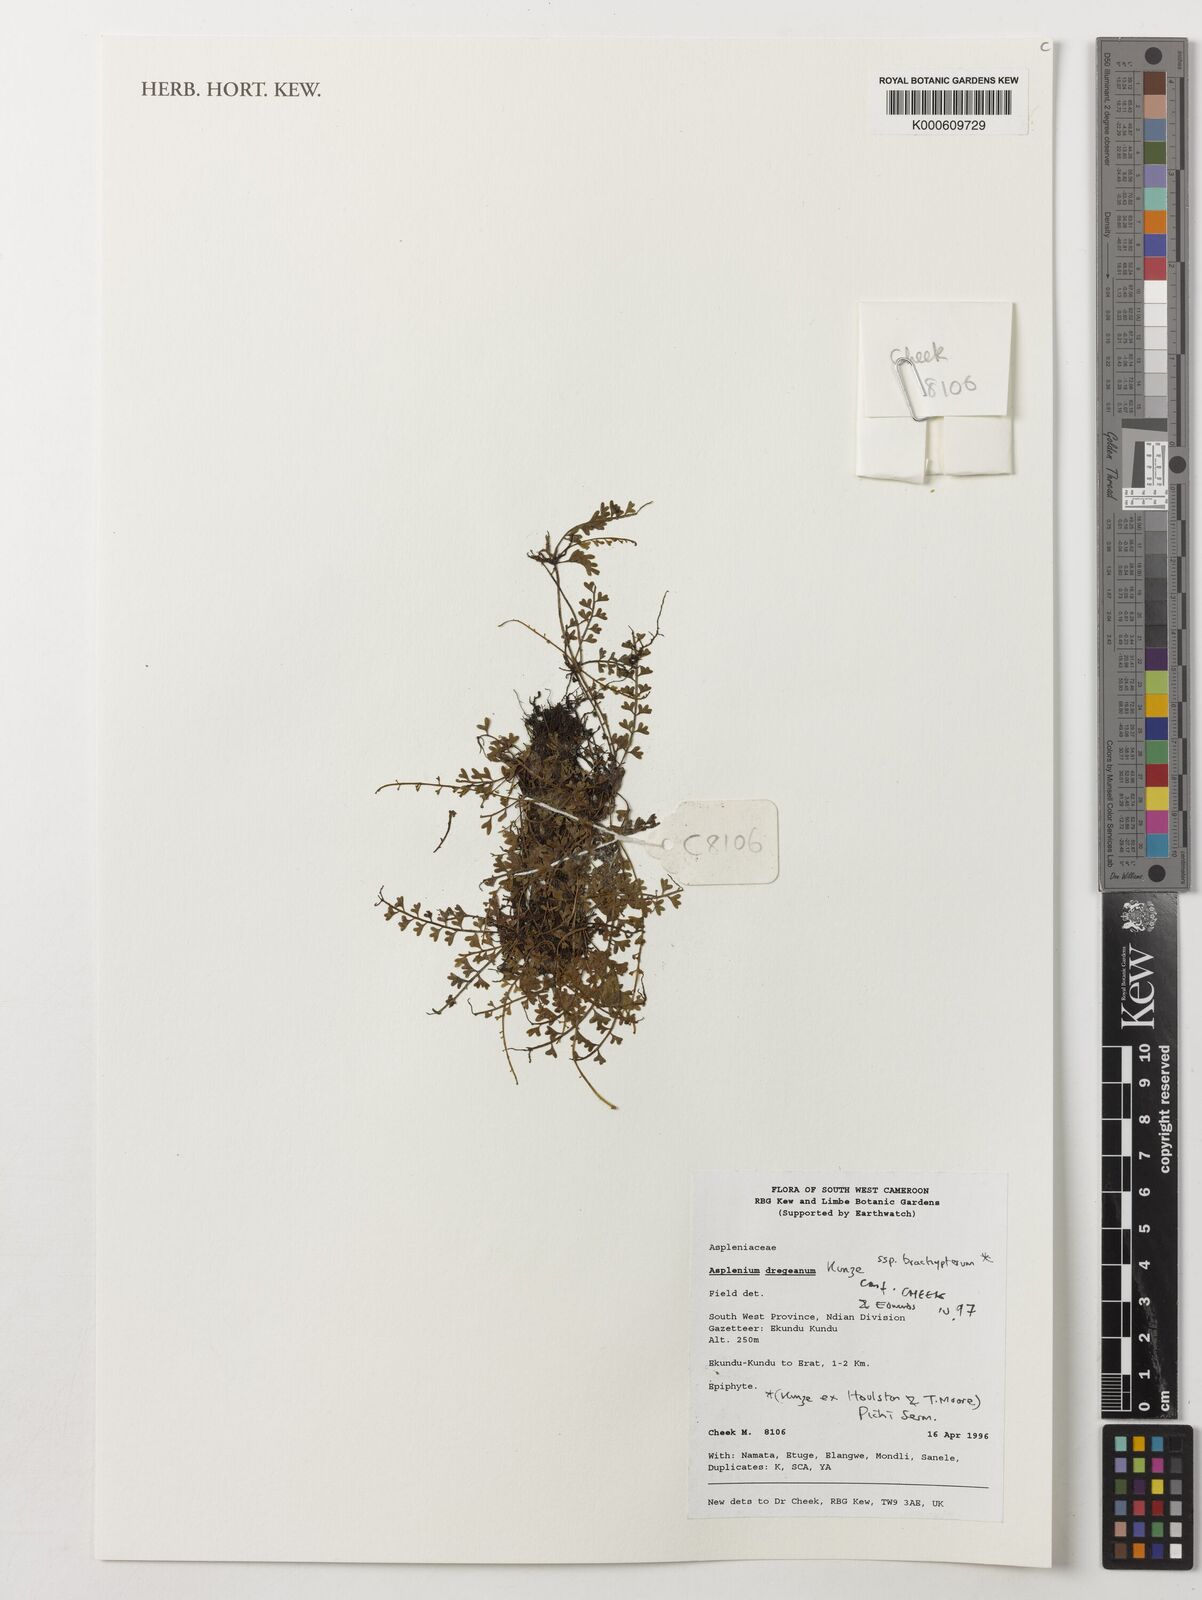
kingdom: Plantae
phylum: Tracheophyta
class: Polypodiopsida
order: Polypodiales
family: Aspleniaceae
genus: Asplenium
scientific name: Asplenium dregeanum
